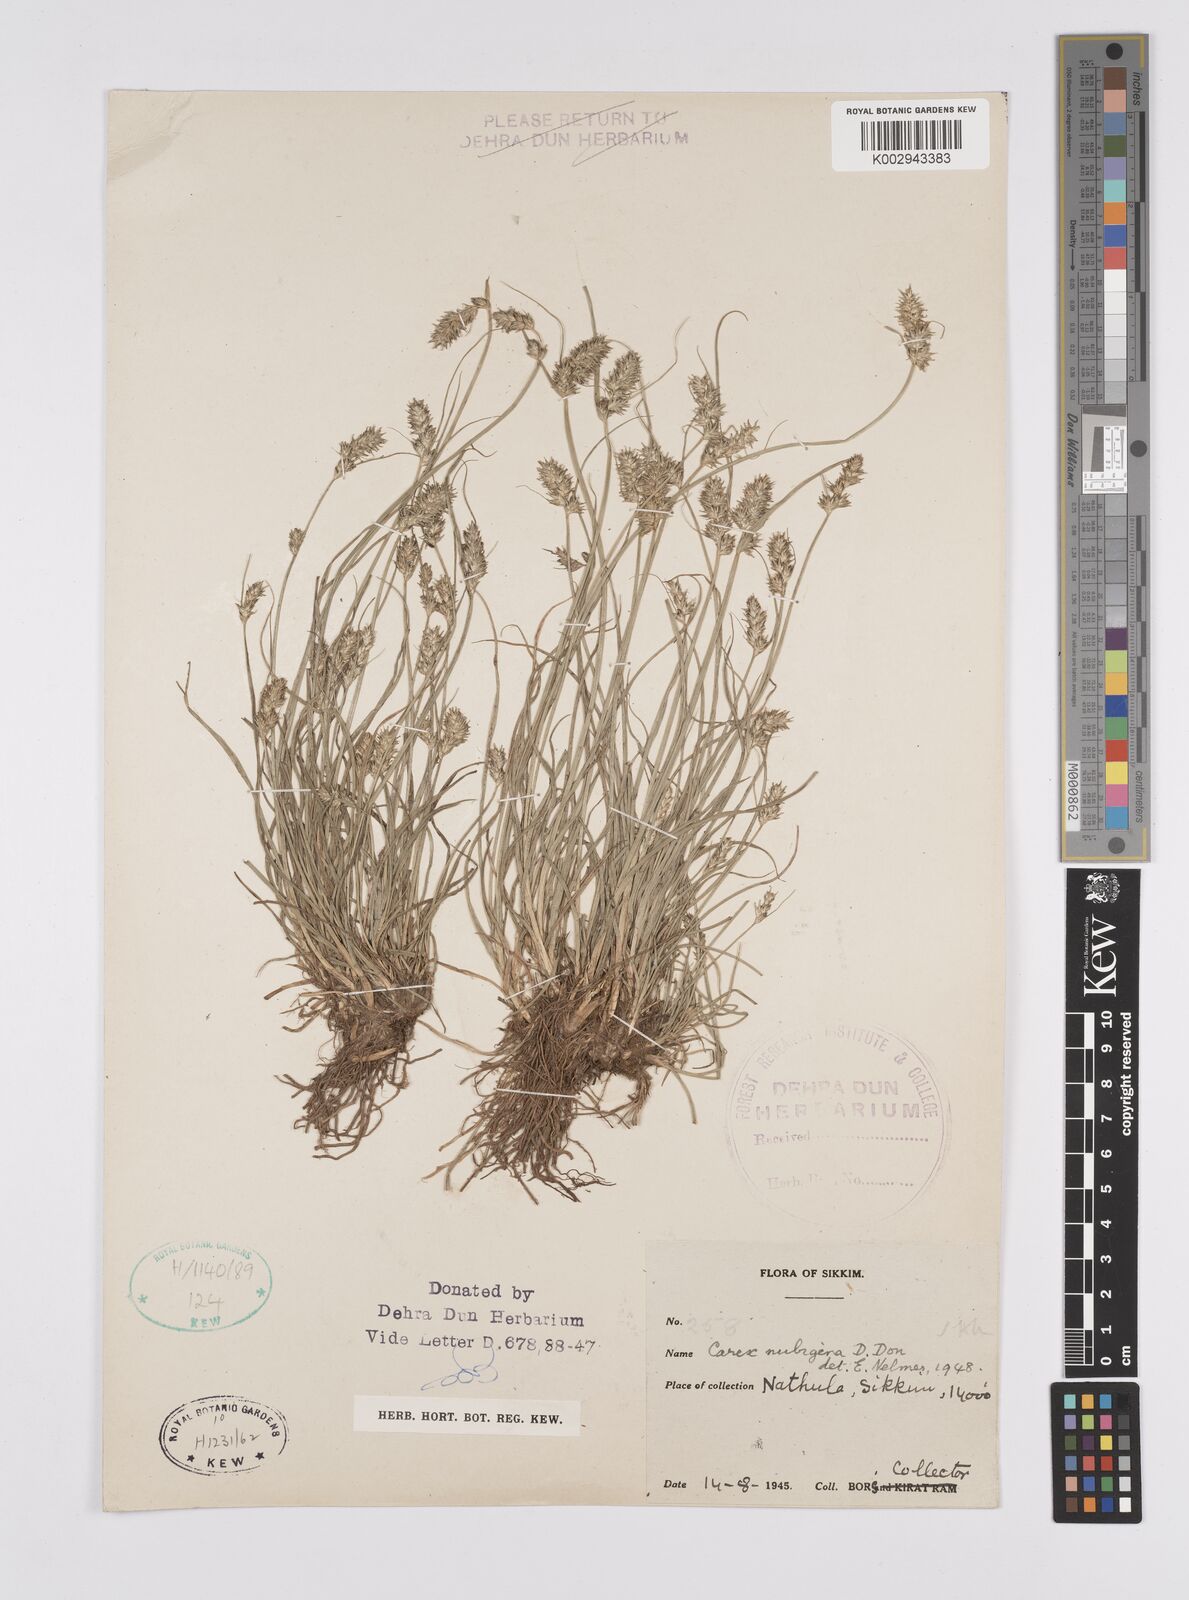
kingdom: Plantae
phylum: Tracheophyta
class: Liliopsida
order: Poales
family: Cyperaceae
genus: Carex
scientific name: Carex nubigena
